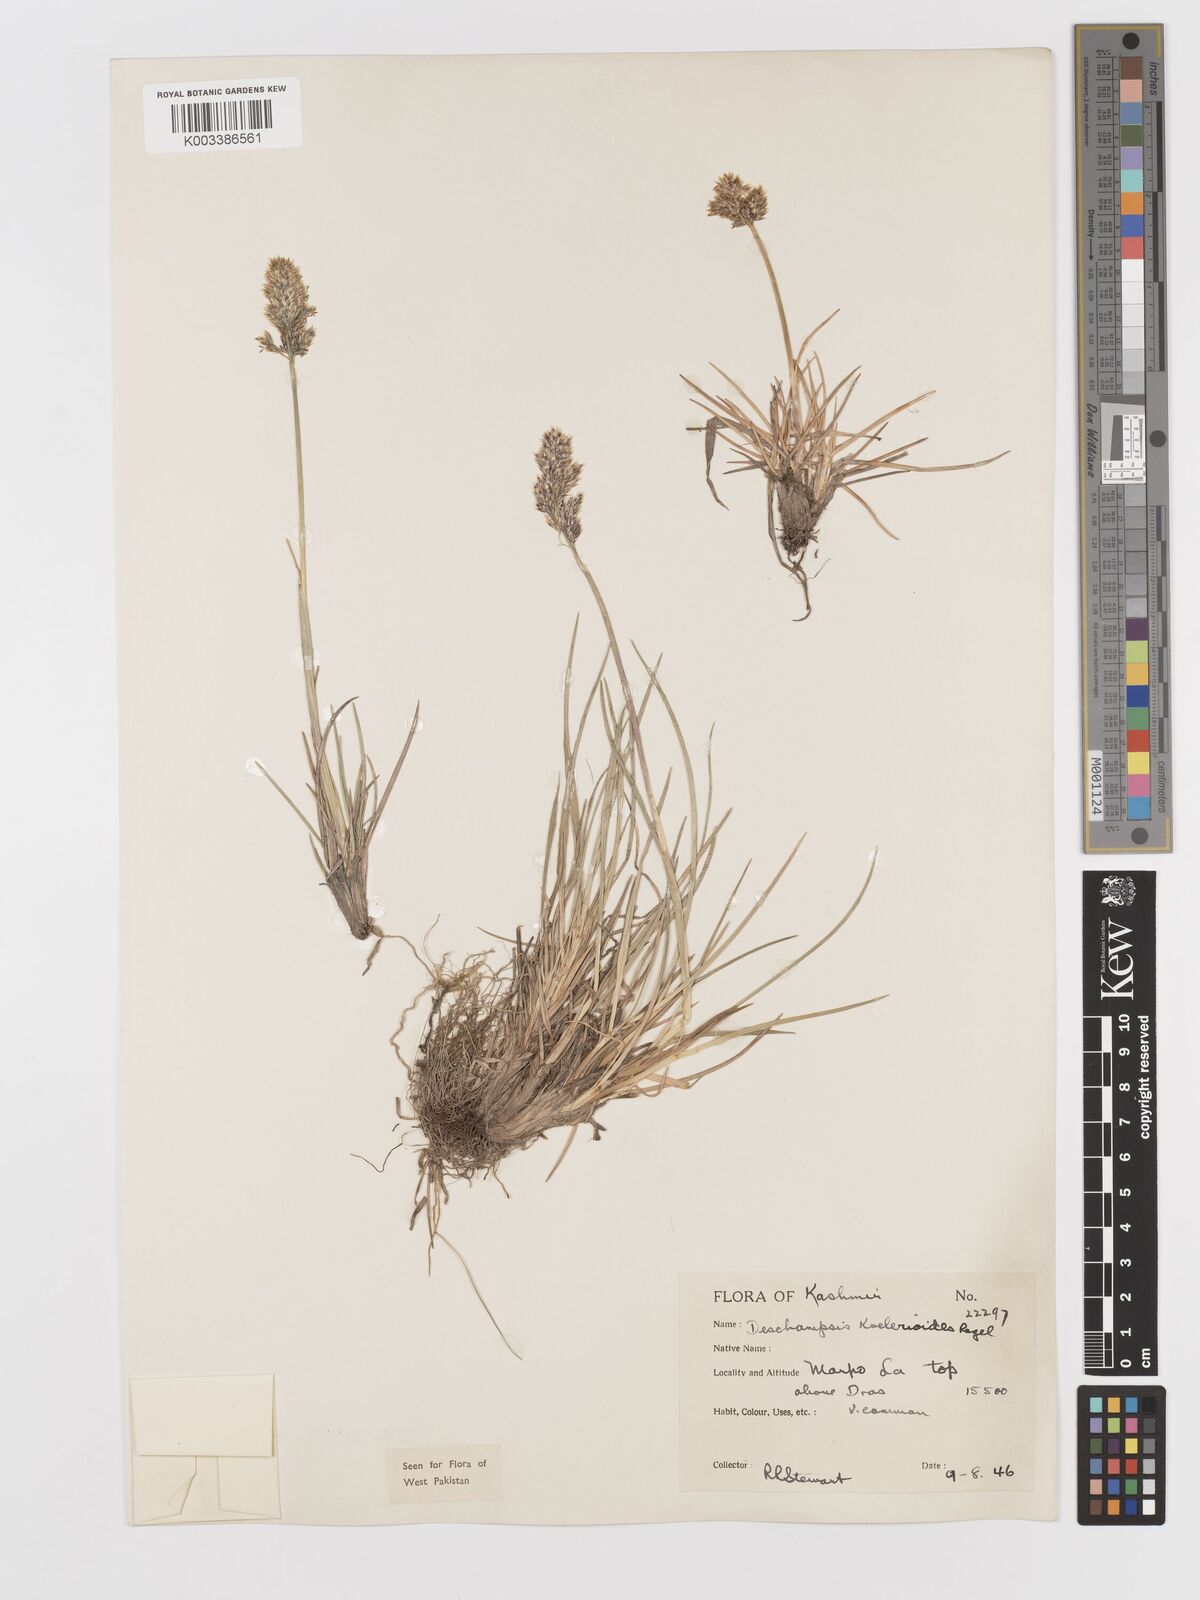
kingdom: Plantae
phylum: Tracheophyta
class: Liliopsida
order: Poales
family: Poaceae
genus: Deschampsia
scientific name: Deschampsia koelerioides
